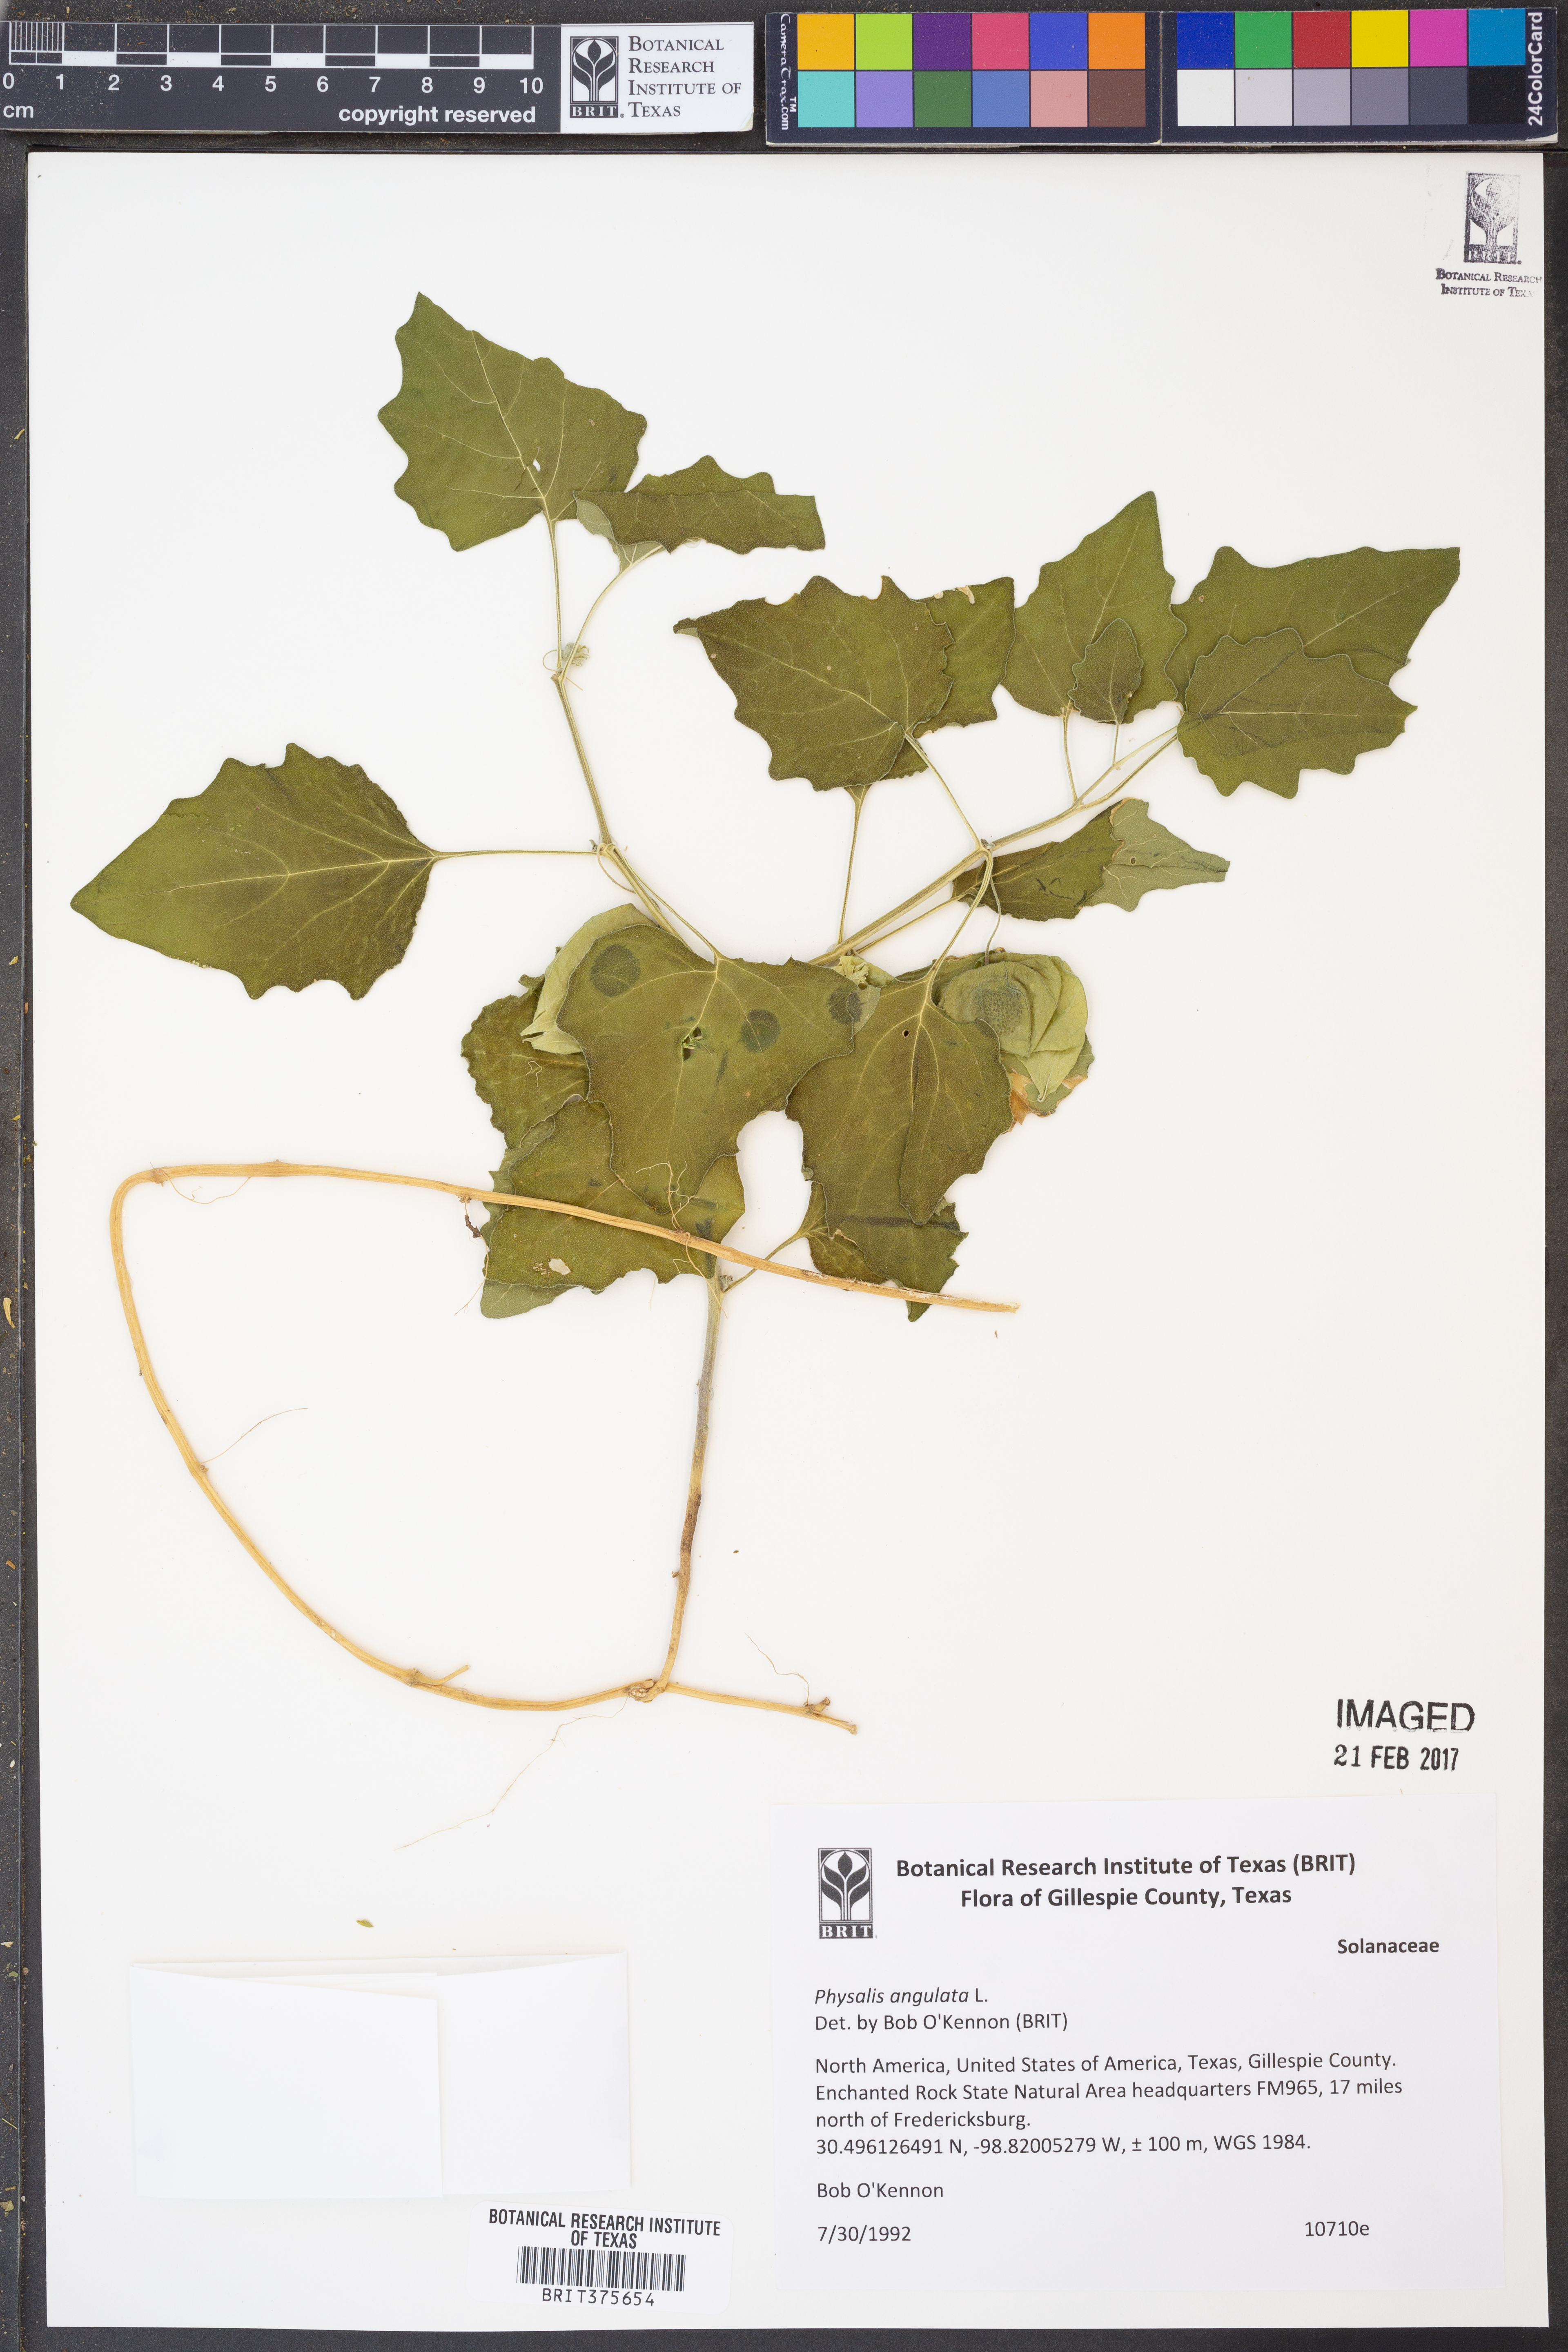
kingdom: Plantae
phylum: Tracheophyta
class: Magnoliopsida
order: Solanales
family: Solanaceae
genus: Physalis
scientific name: Physalis angulata
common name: Angular winter-cherry
